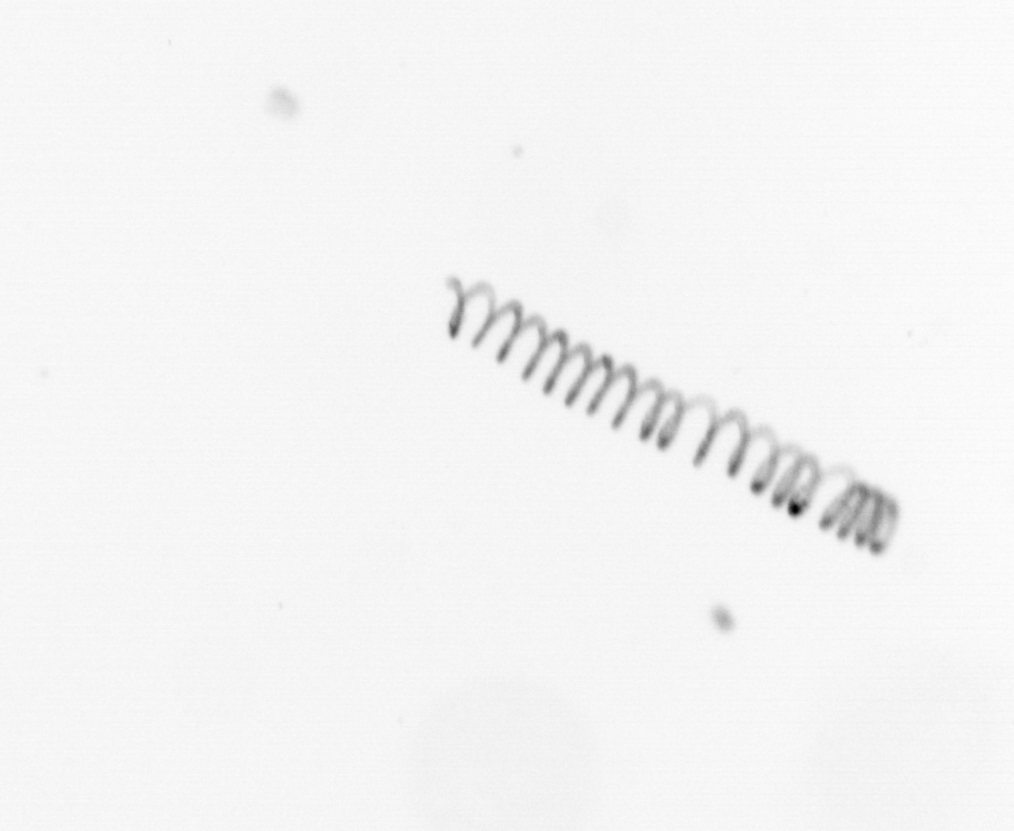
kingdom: Chromista
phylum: Ochrophyta
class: Bacillariophyceae
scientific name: Bacillariophyceae
